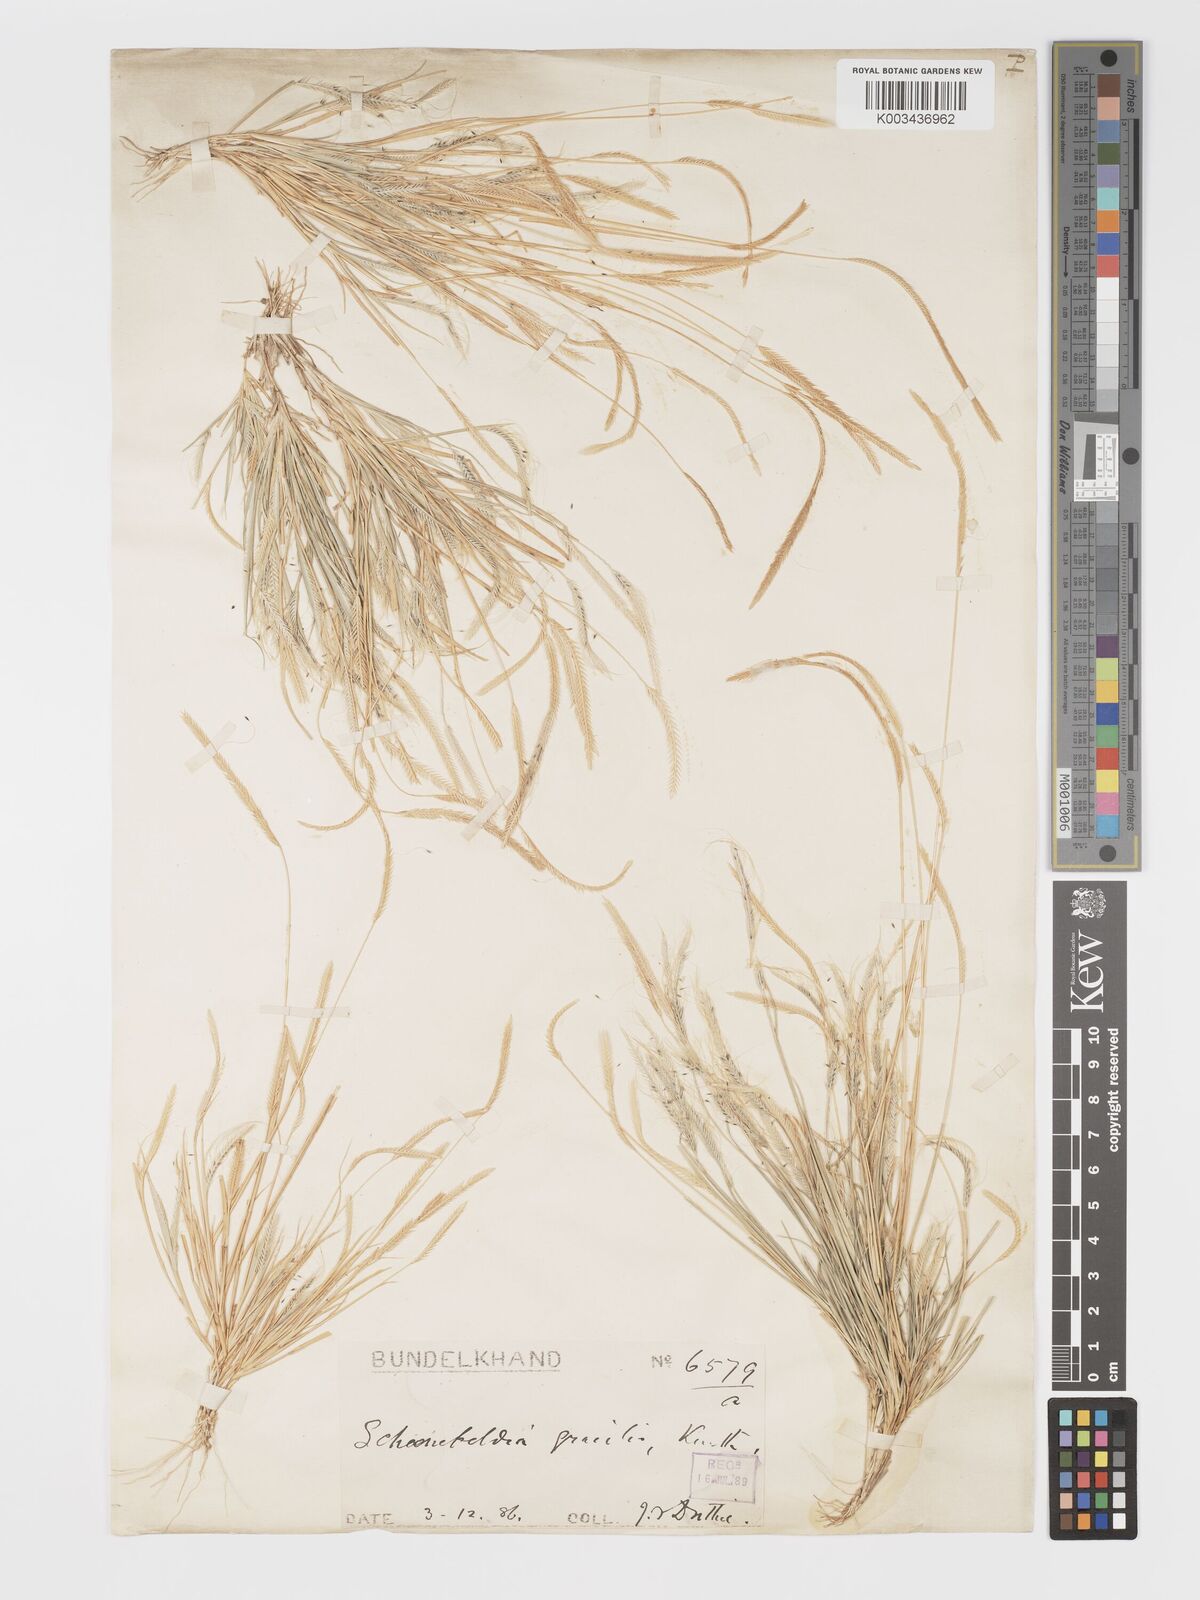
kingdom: Plantae
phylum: Tracheophyta
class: Liliopsida
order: Poales
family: Poaceae
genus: Schoenefeldia
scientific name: Schoenefeldia gracilis
